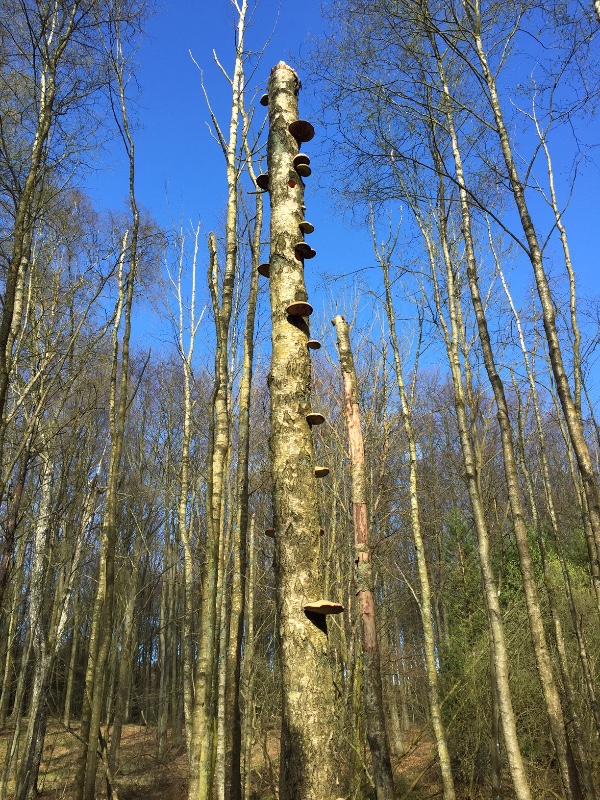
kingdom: Fungi
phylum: Basidiomycota
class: Agaricomycetes
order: Polyporales
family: Fomitopsidaceae
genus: Fomitopsis
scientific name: Fomitopsis betulina
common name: birkeporesvamp
